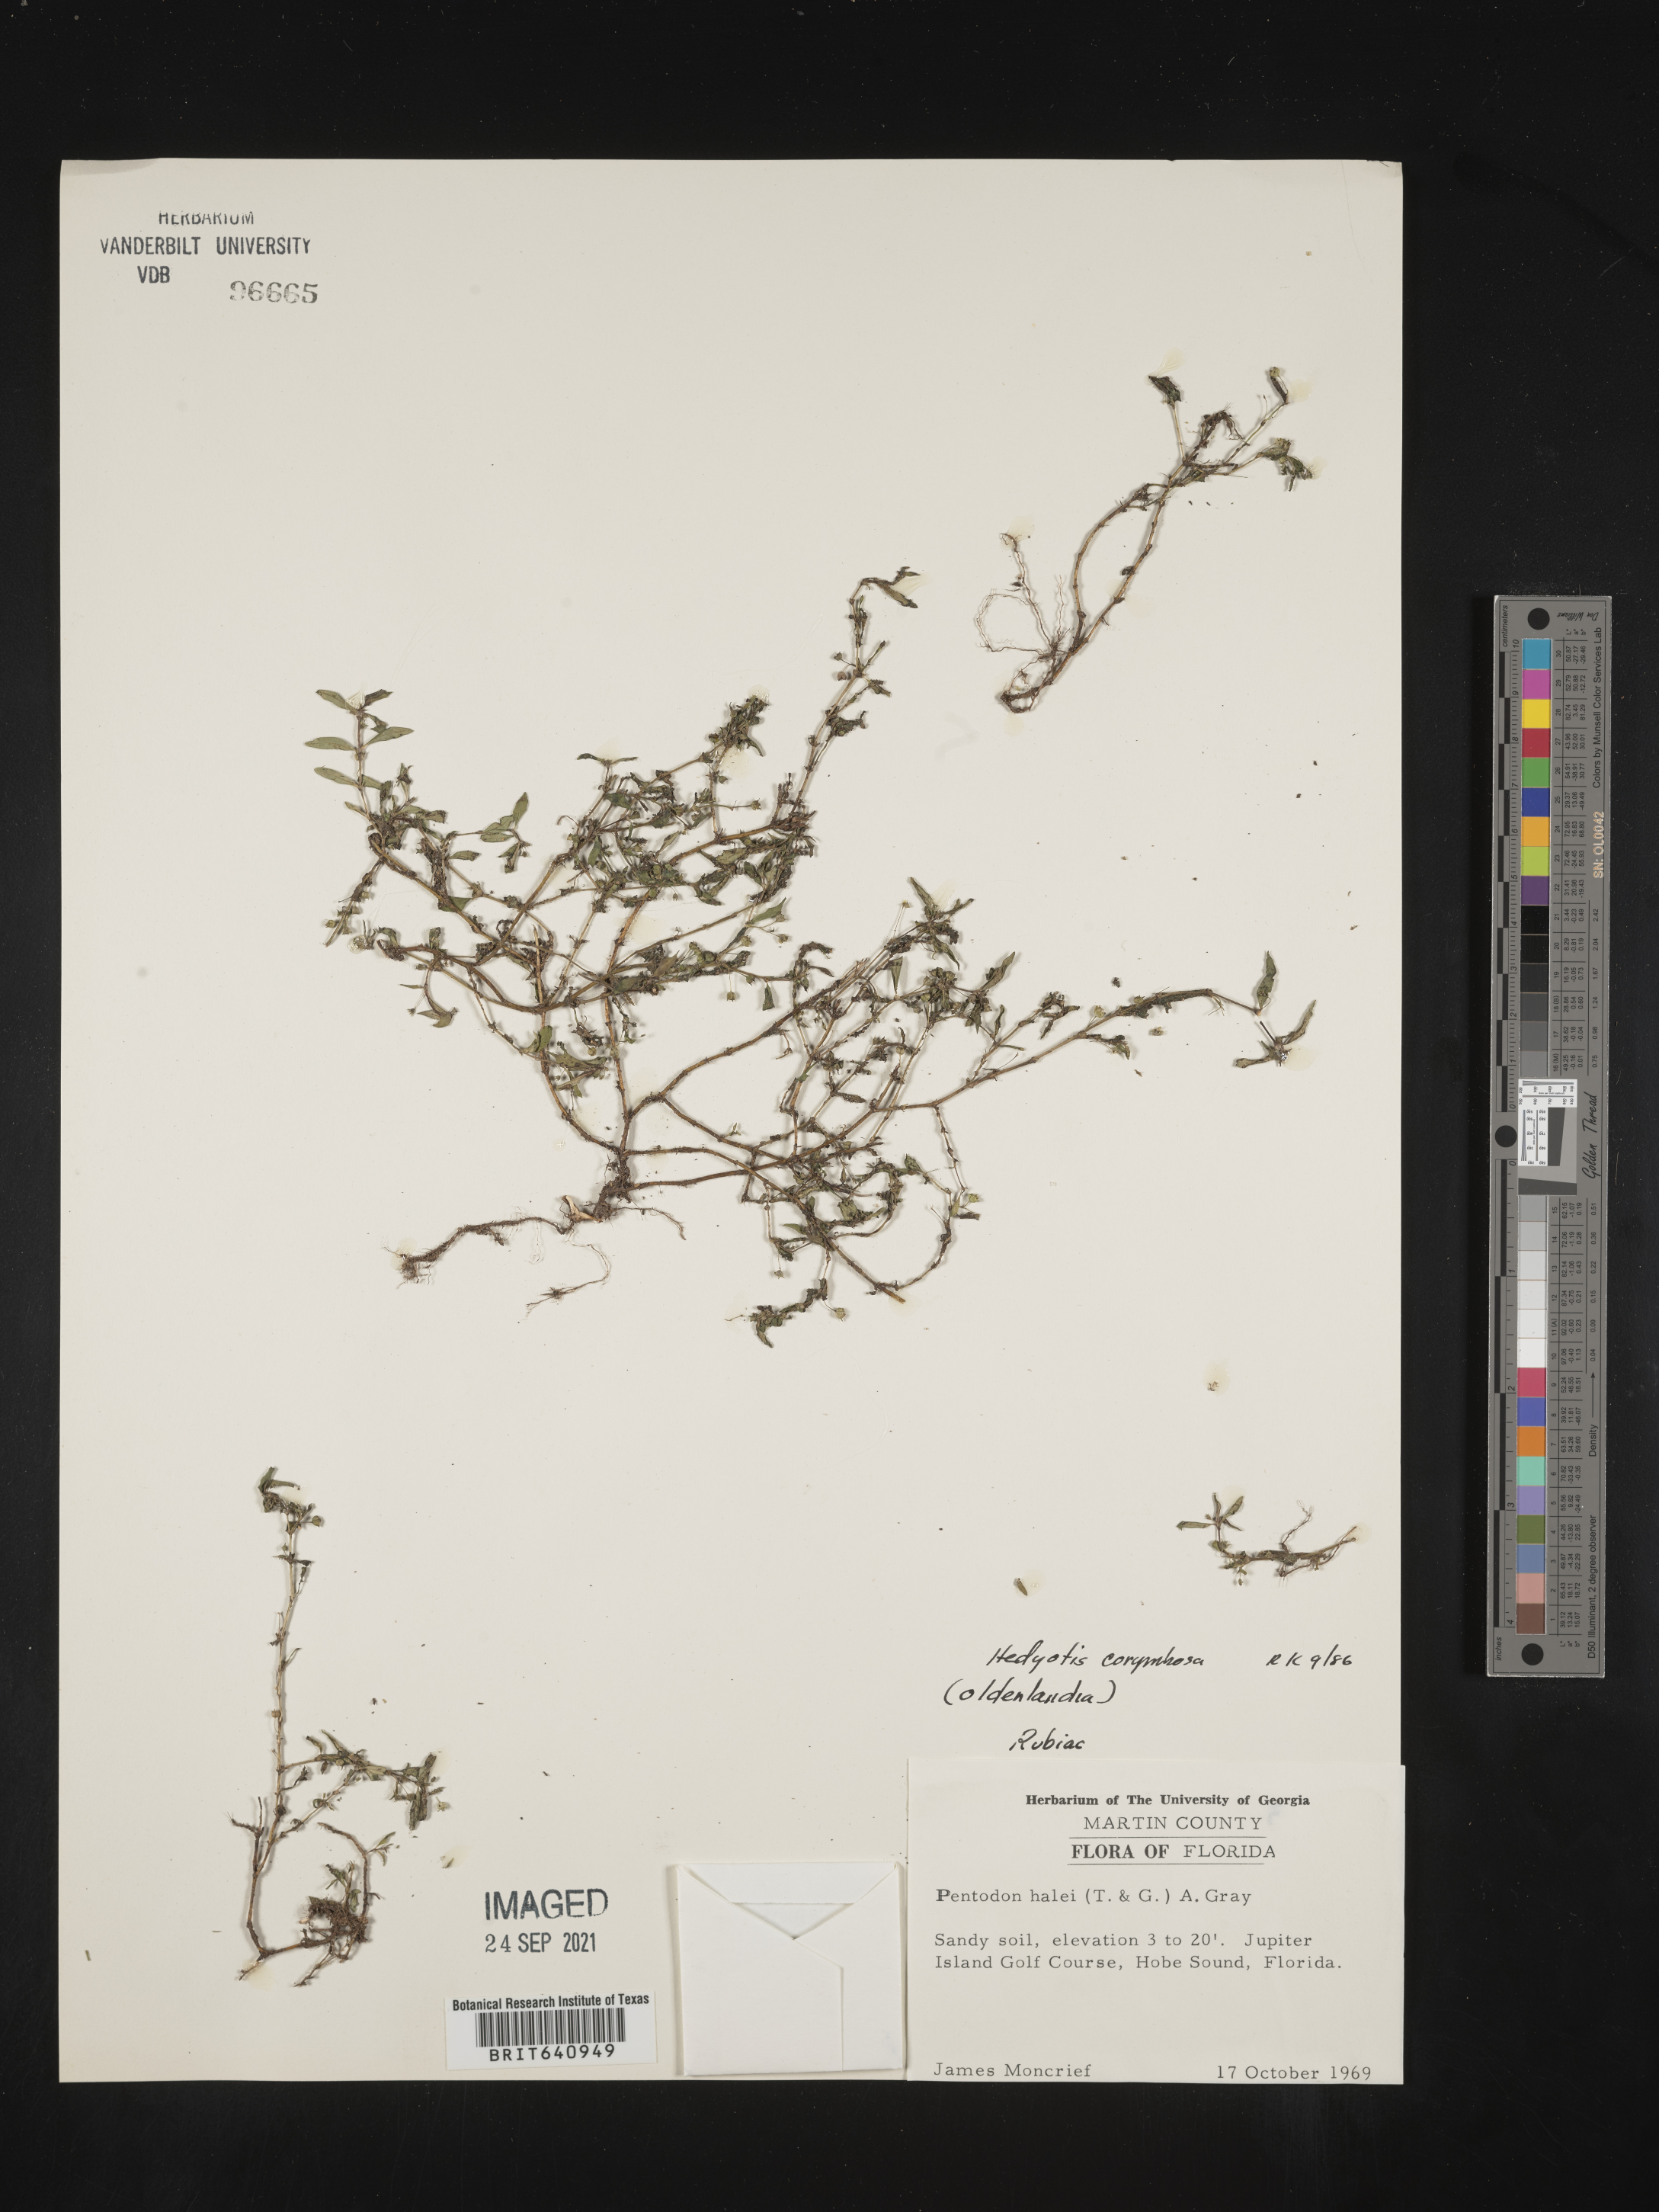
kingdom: Plantae
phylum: Tracheophyta
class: Magnoliopsida
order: Gentianales
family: Rubiaceae
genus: Oldenlandia
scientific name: Oldenlandia corymbosa
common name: Flat-top mille graines
